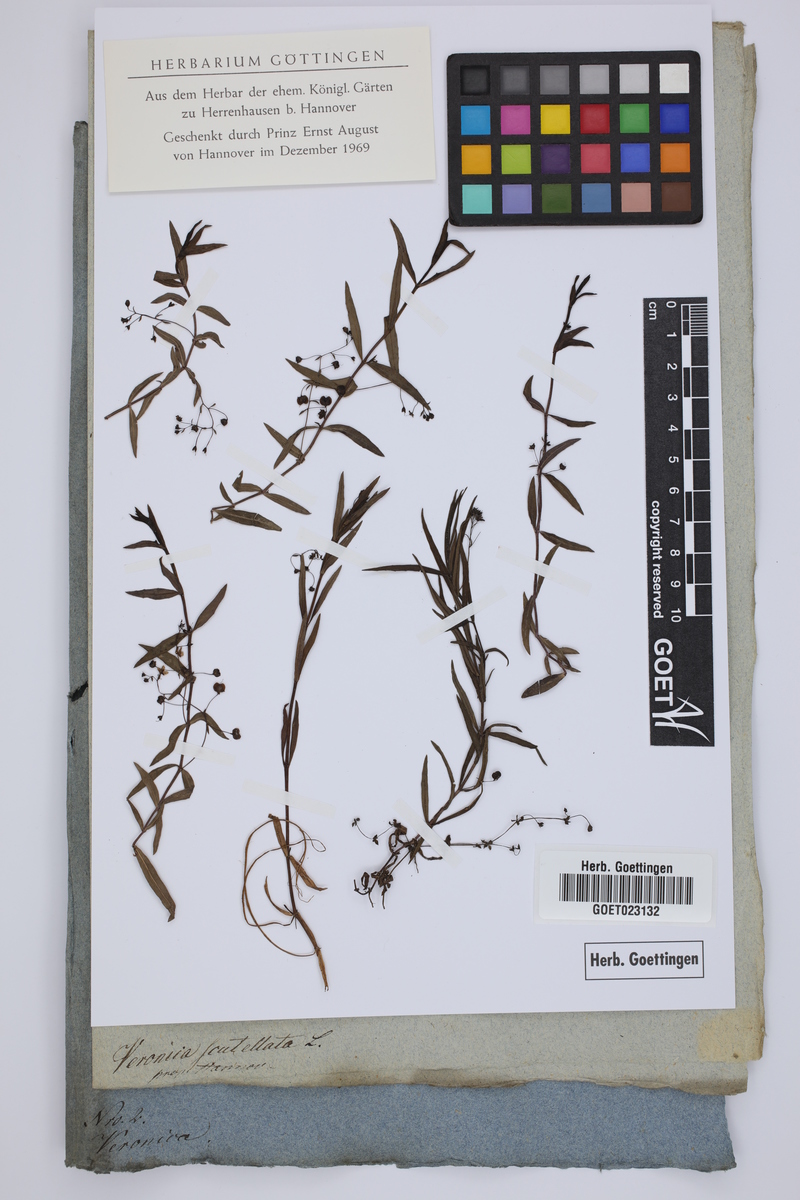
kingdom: Plantae
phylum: Tracheophyta
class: Magnoliopsida
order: Lamiales
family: Plantaginaceae
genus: Veronica
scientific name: Veronica scutellata
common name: Marsh speedwell
